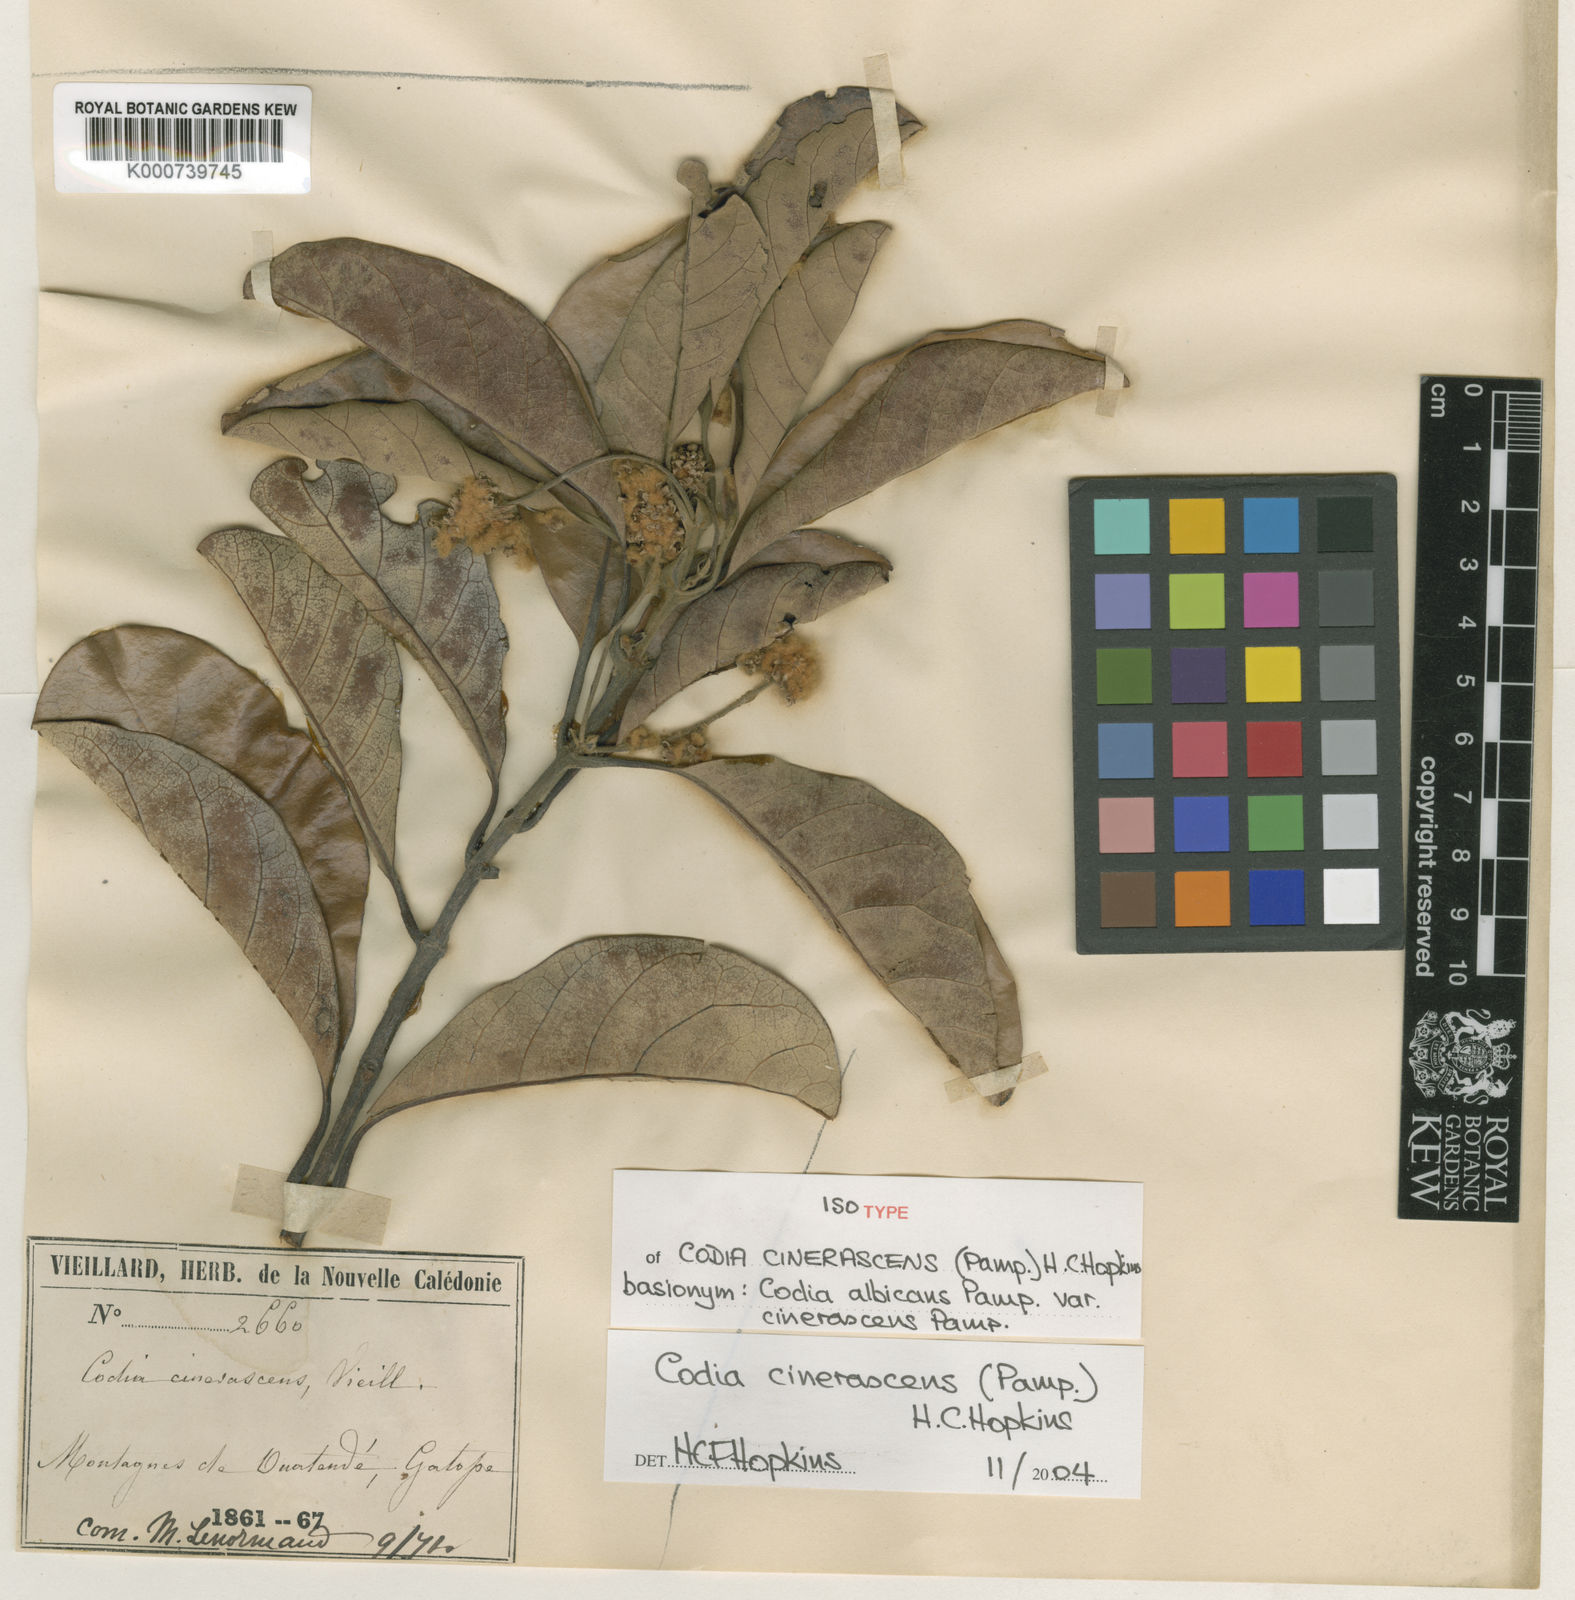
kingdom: Plantae
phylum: Tracheophyta
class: Magnoliopsida
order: Oxalidales
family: Cunoniaceae
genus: Codia
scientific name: Codia cinerascens
